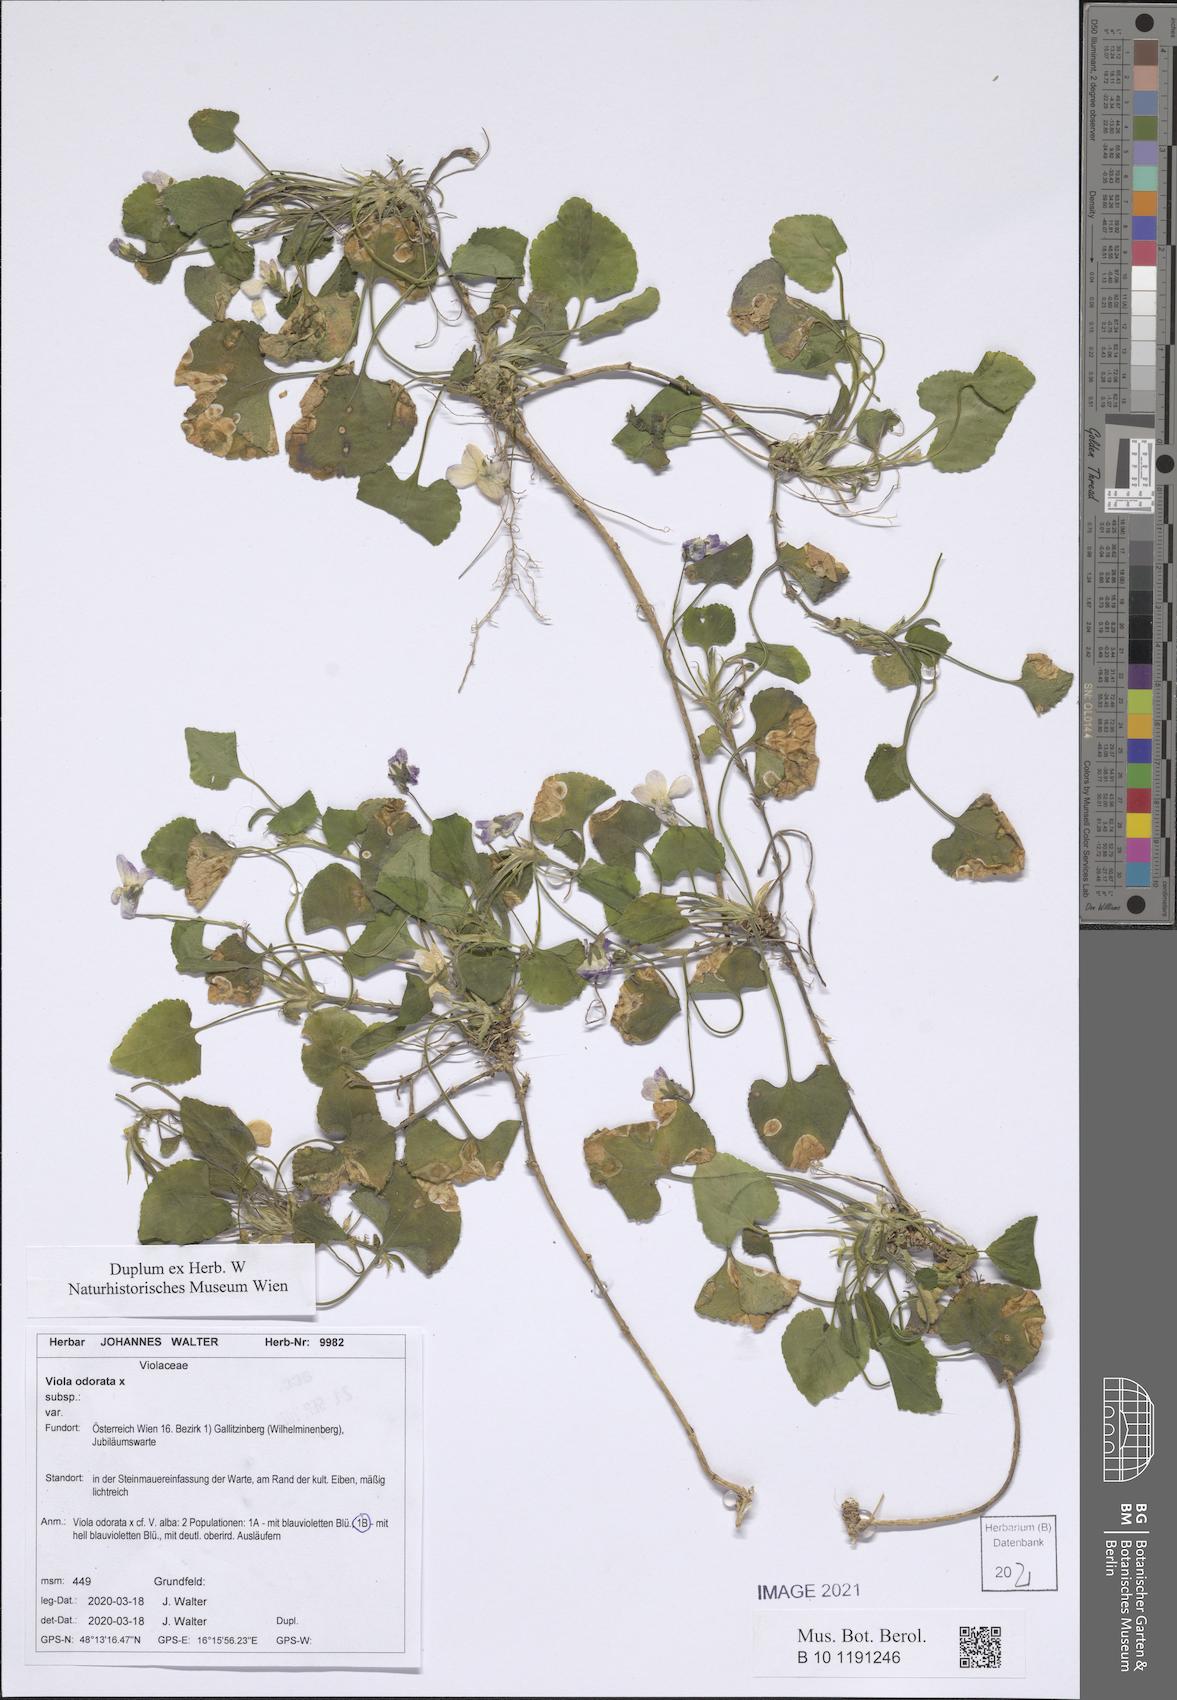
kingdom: Plantae
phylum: Tracheophyta
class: Magnoliopsida
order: Malpighiales
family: Violaceae
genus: Viola
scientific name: Viola odorata
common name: Sweet violet
